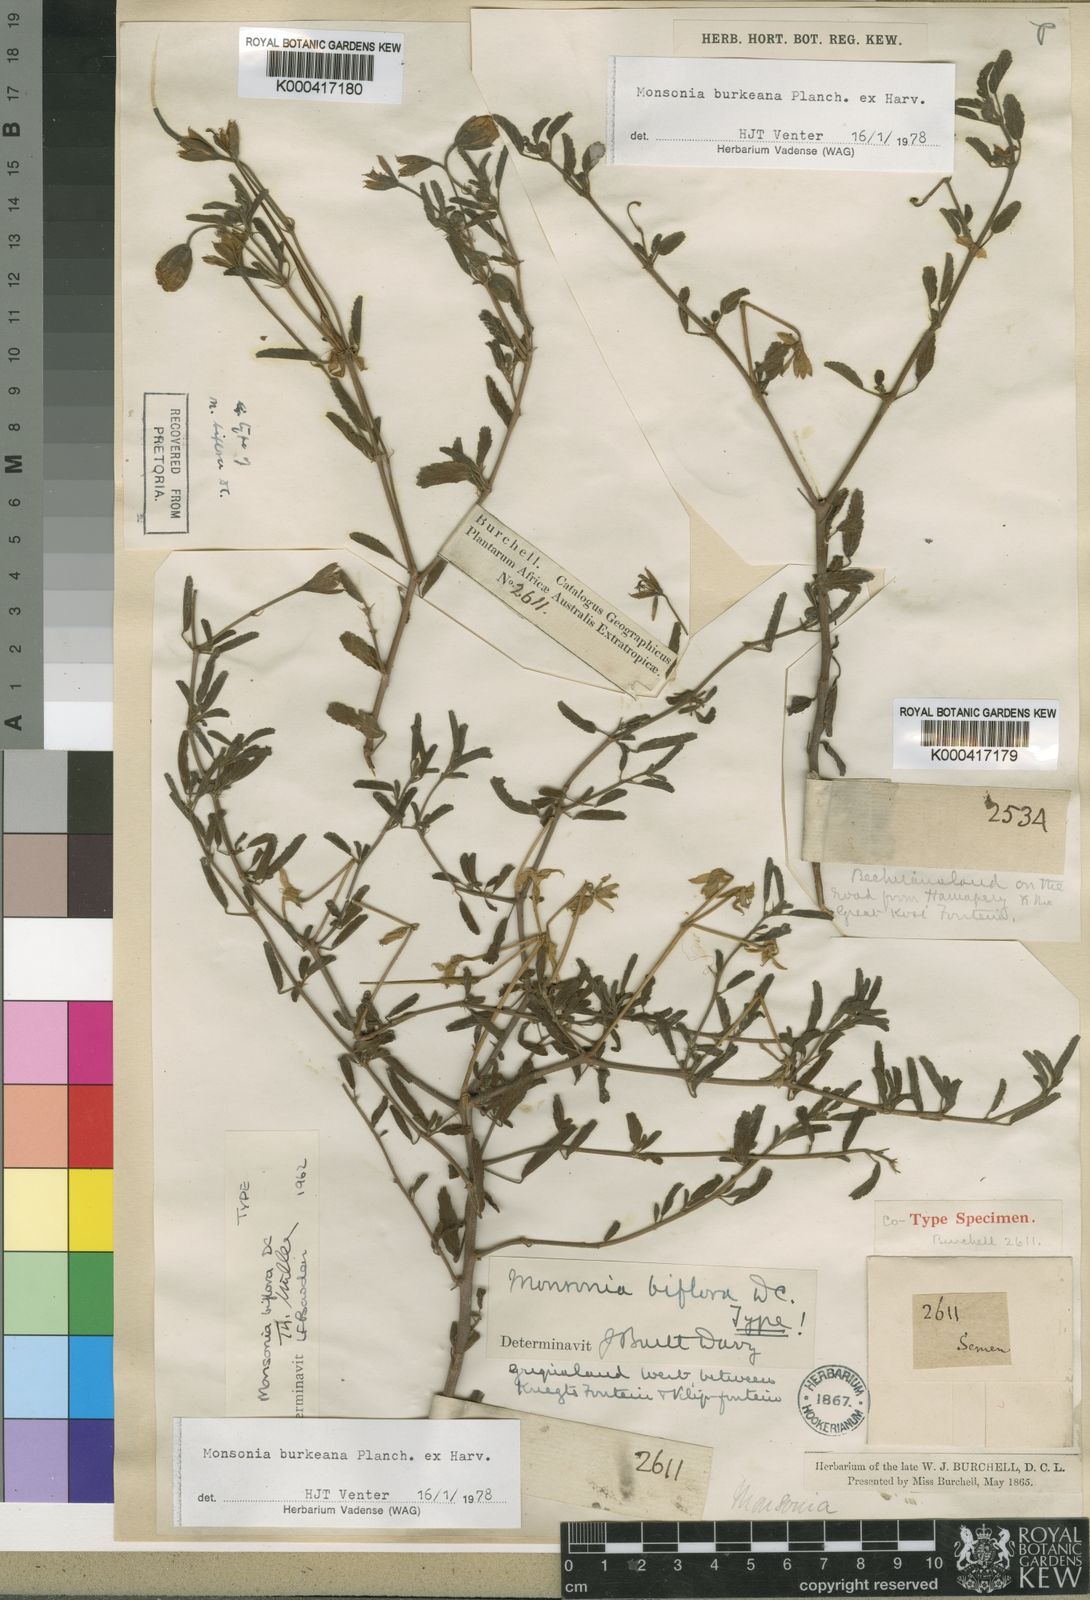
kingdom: Plantae
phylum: Tracheophyta
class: Magnoliopsida
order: Geraniales
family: Geraniaceae
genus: Monsonia
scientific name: Monsonia biflora
